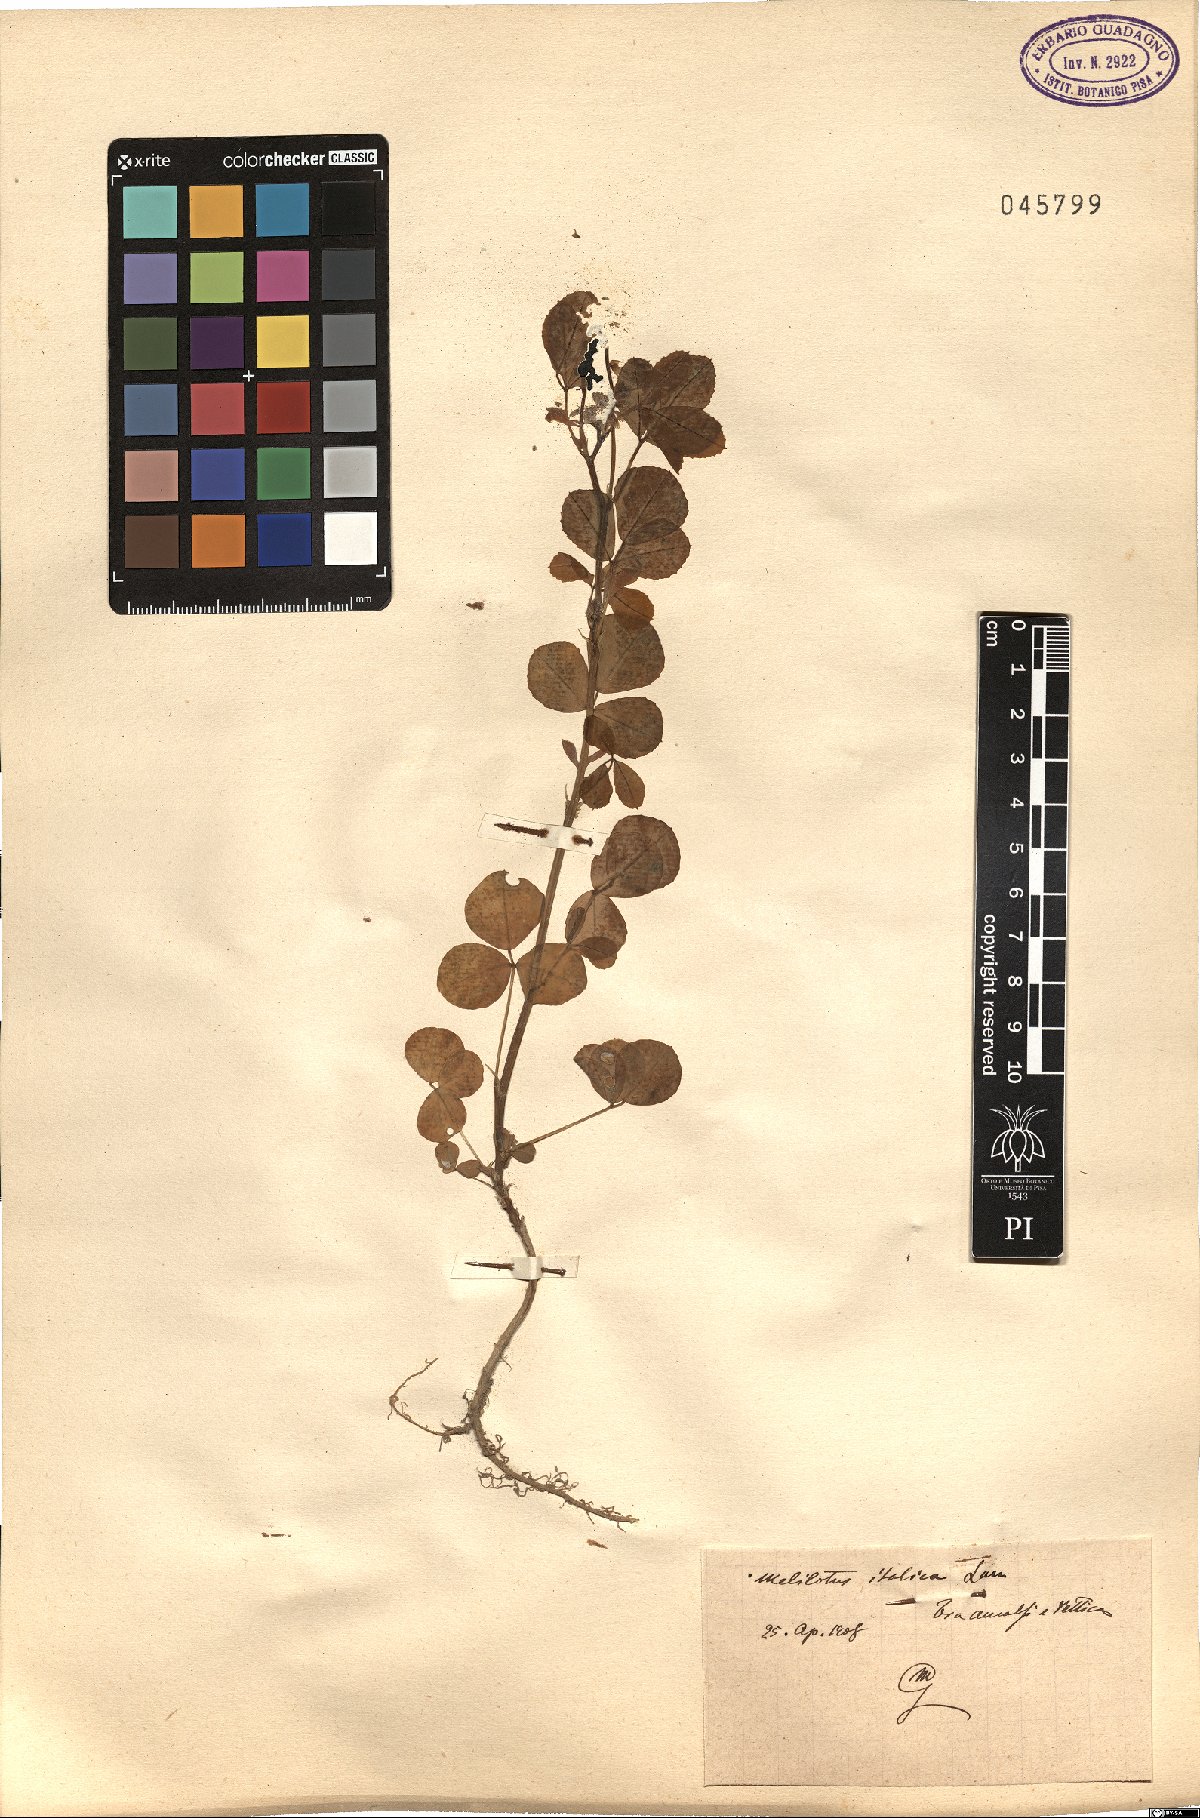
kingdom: Plantae
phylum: Tracheophyta
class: Magnoliopsida
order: Fabales
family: Fabaceae
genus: Melilotus
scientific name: Melilotus italicus
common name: Italian melilot
